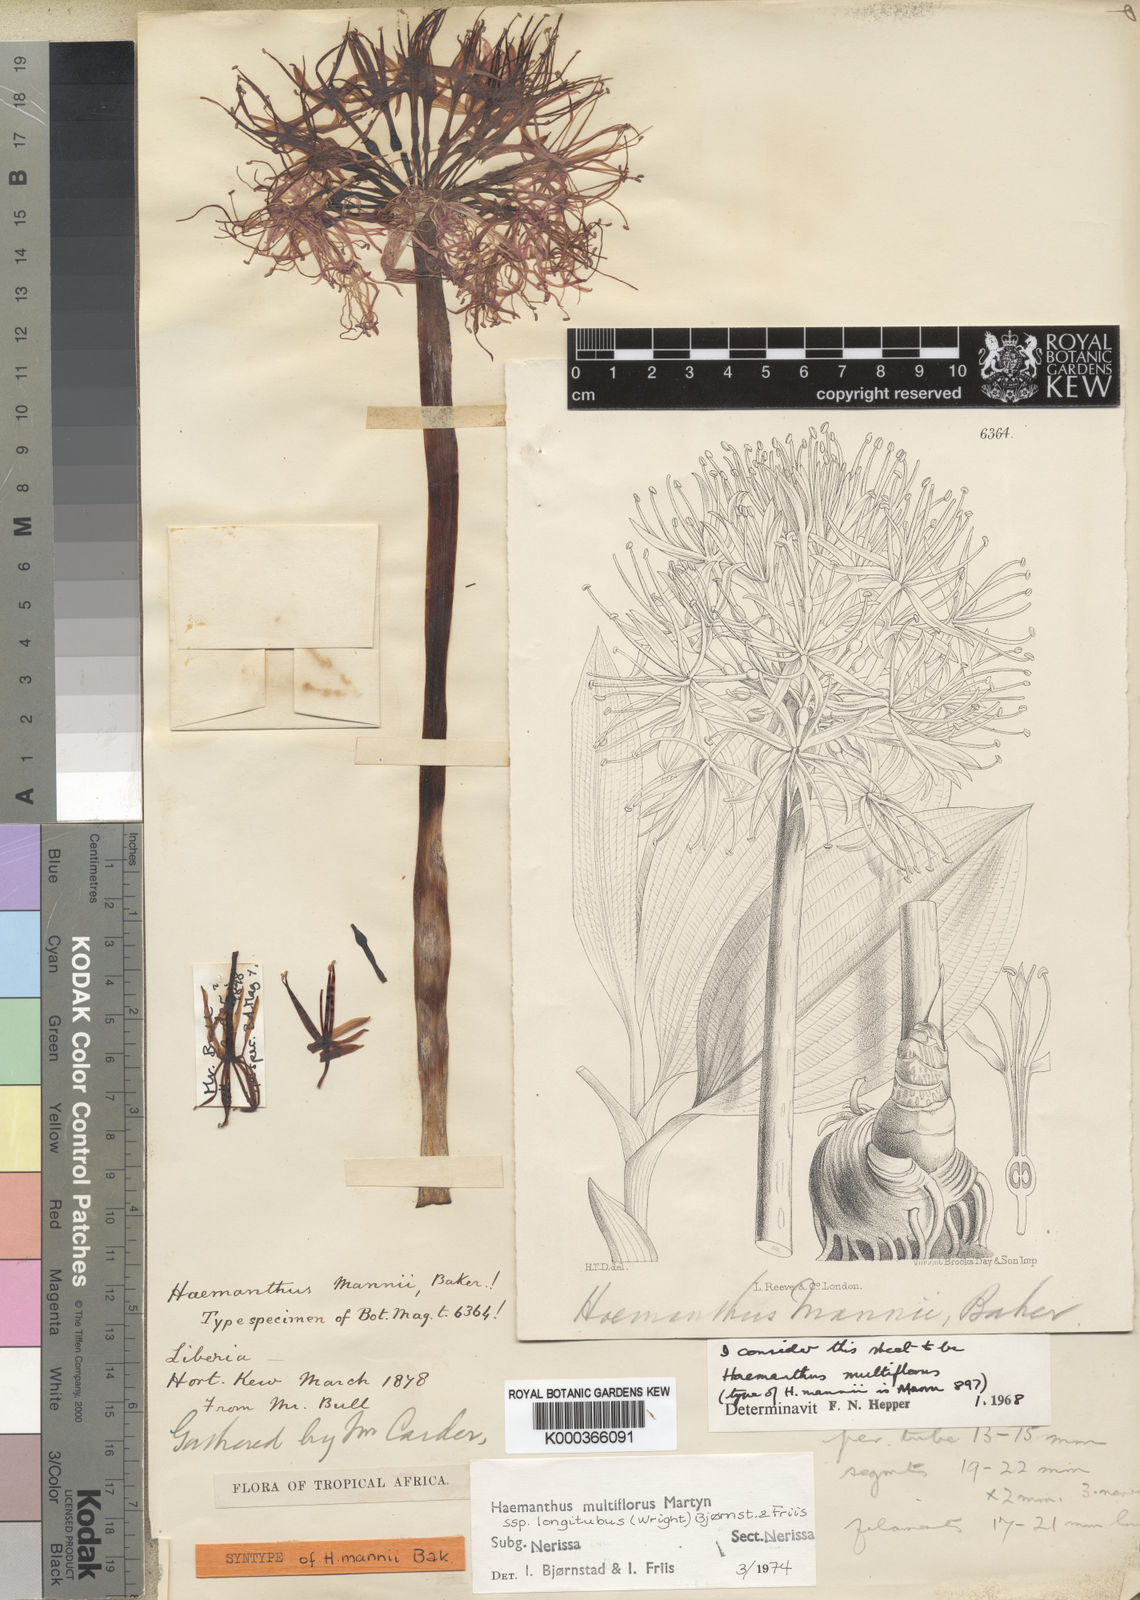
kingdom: Plantae
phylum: Tracheophyta
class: Liliopsida
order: Asparagales
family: Amaryllidaceae
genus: Scadoxus
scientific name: Scadoxus multiflorus
